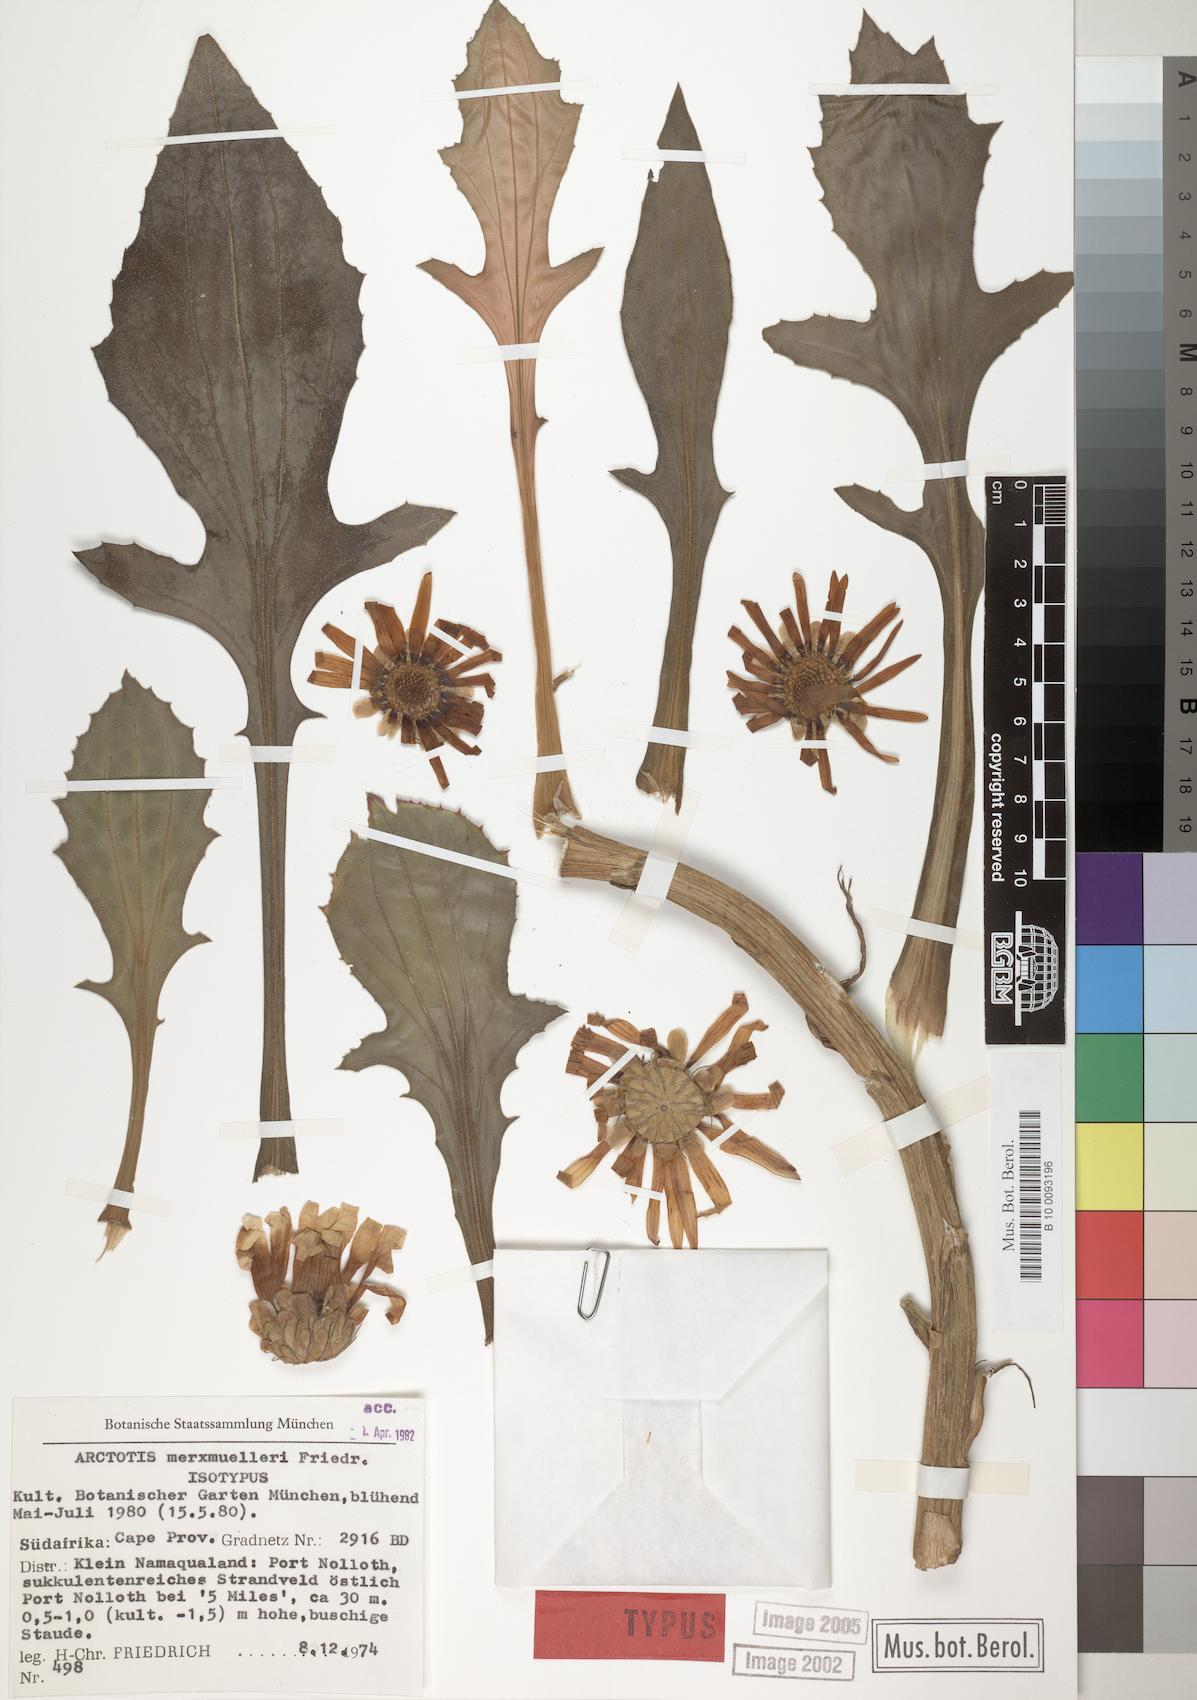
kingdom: Plantae
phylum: Tracheophyta
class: Magnoliopsida
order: Asterales
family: Asteraceae
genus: Arctotis
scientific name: Arctotis decurrens
